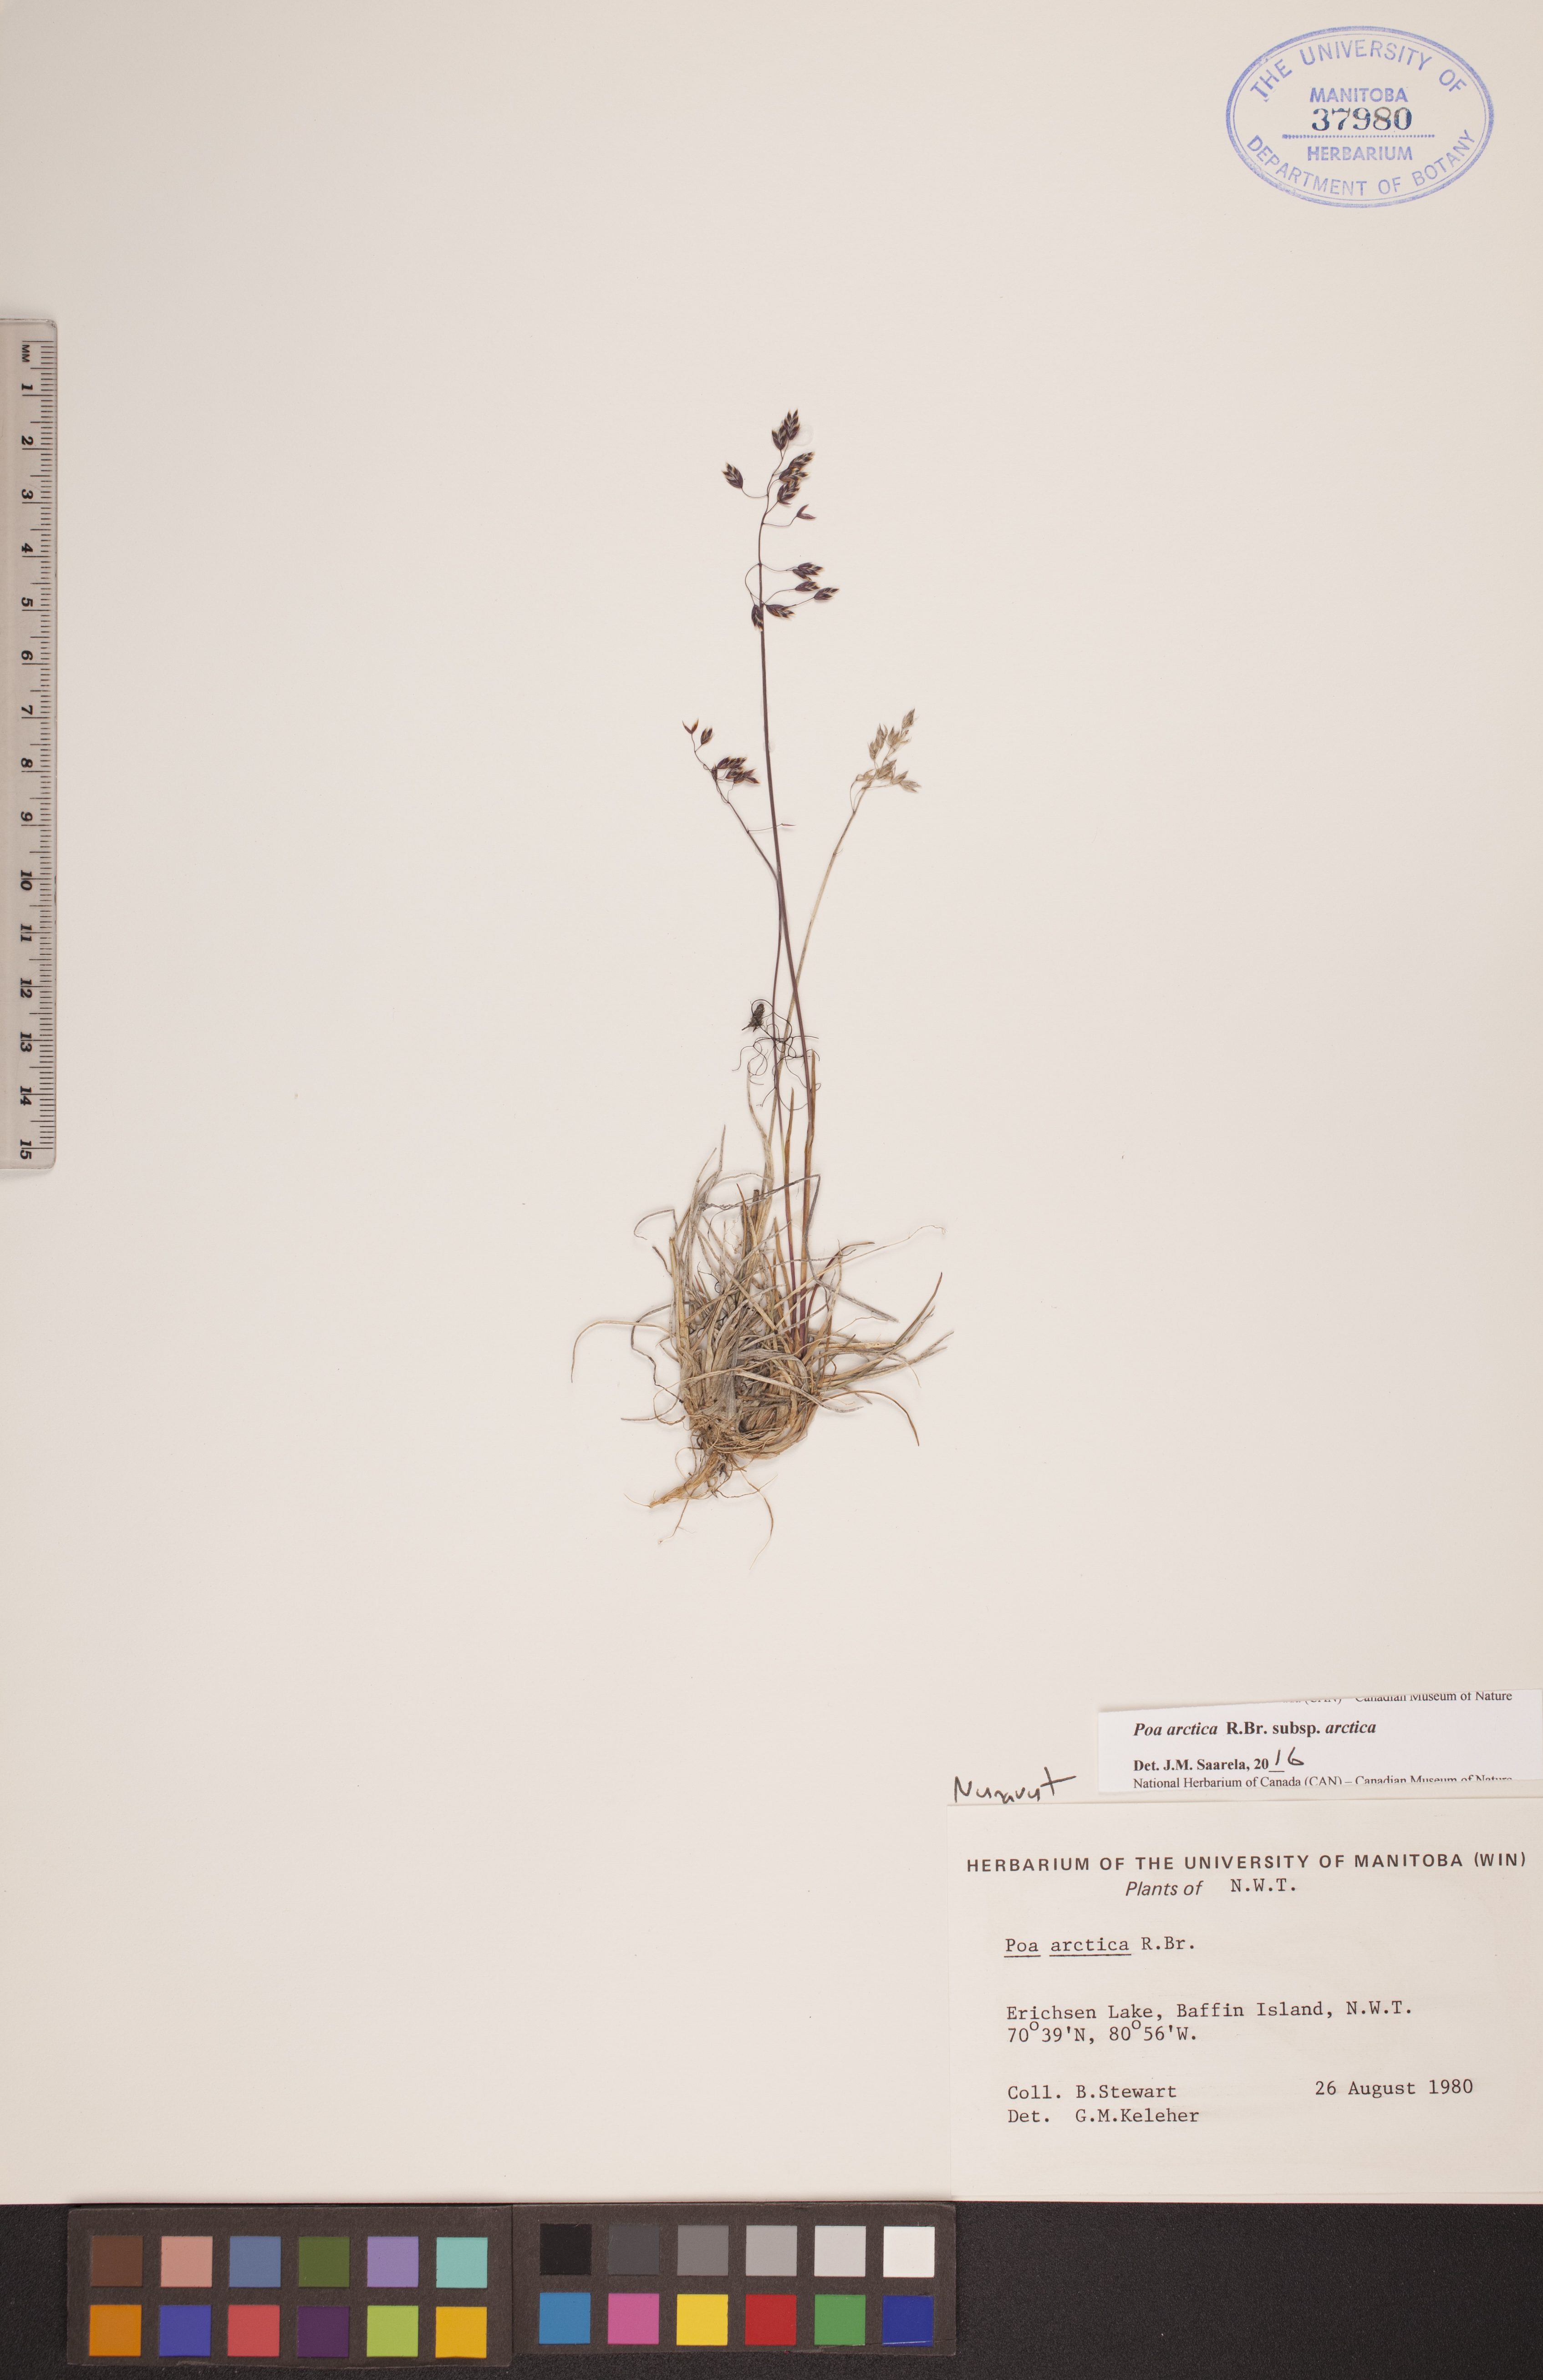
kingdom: Plantae
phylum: Tracheophyta
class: Liliopsida
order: Poales
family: Poaceae
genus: Poa
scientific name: Poa arctica
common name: Arctic bluegrass
